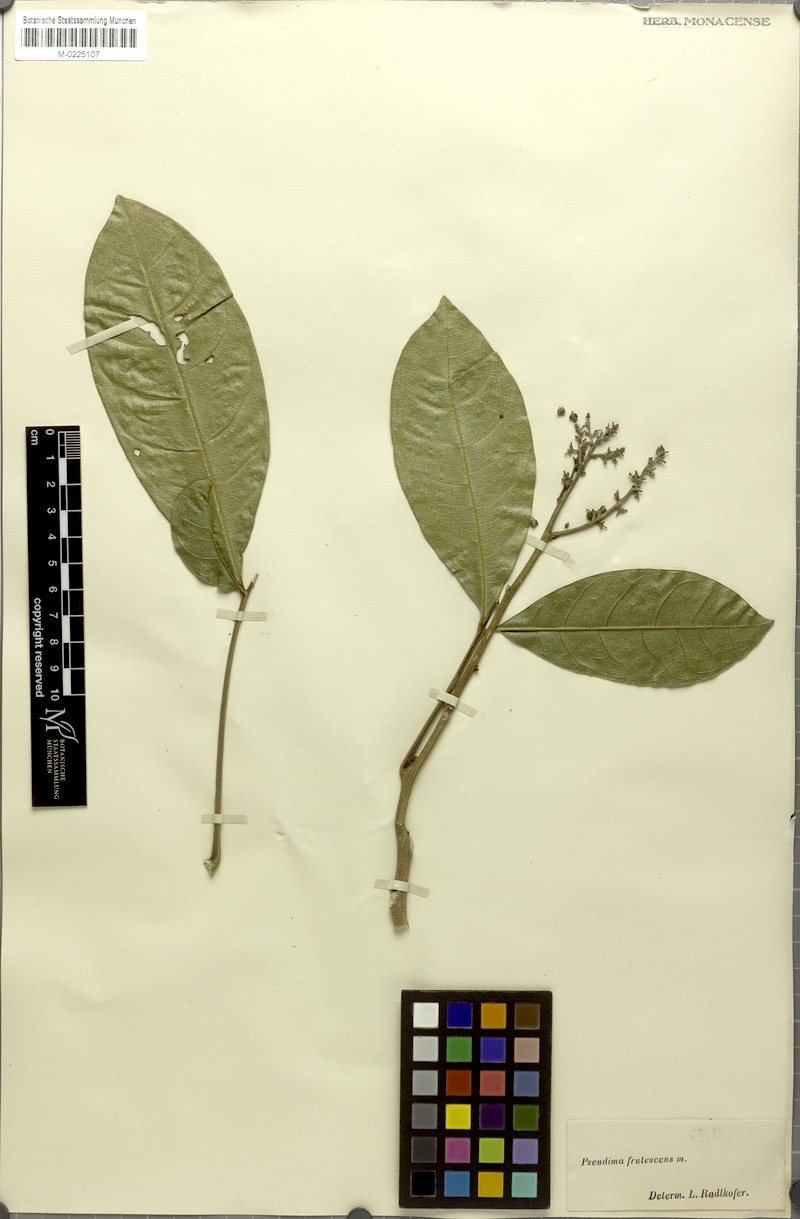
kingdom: Plantae
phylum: Tracheophyta
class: Magnoliopsida
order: Sapindales
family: Sapindaceae
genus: Pseudima
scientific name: Pseudima frutescens
